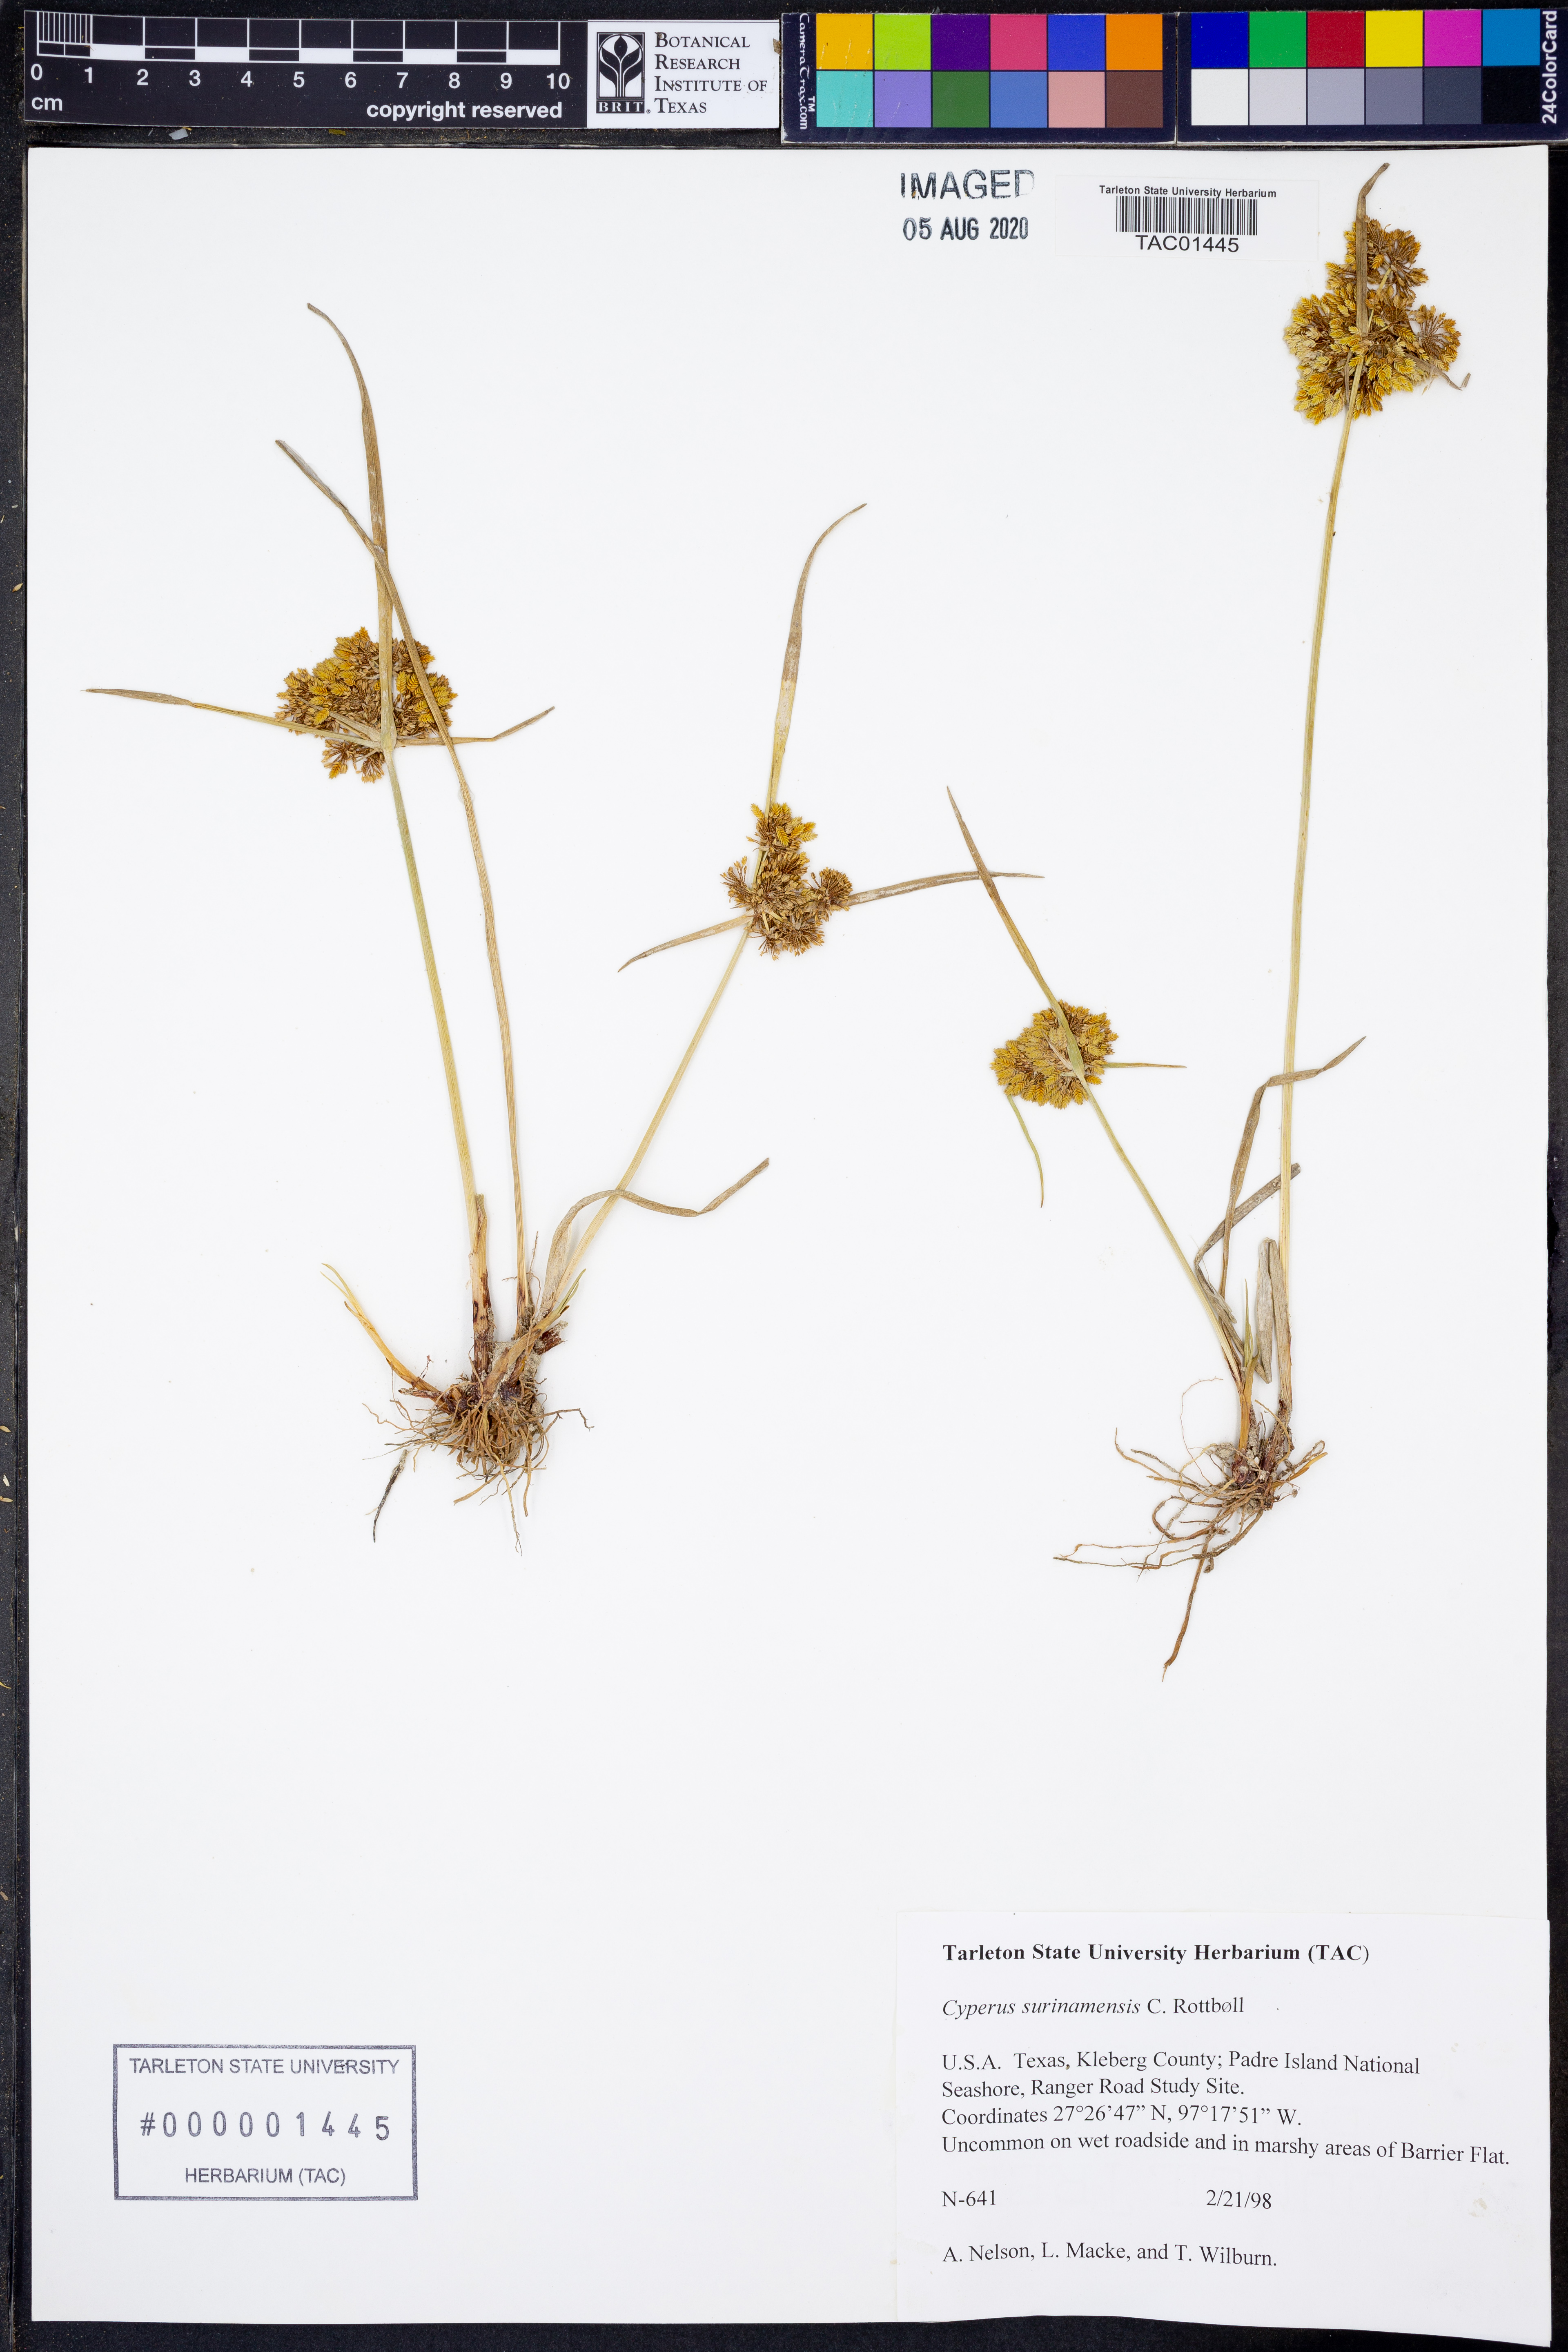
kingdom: Plantae
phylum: Tracheophyta
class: Liliopsida
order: Poales
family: Cyperaceae
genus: Cyperus
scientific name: Cyperus surinamensis
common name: Tropical flat sedge
